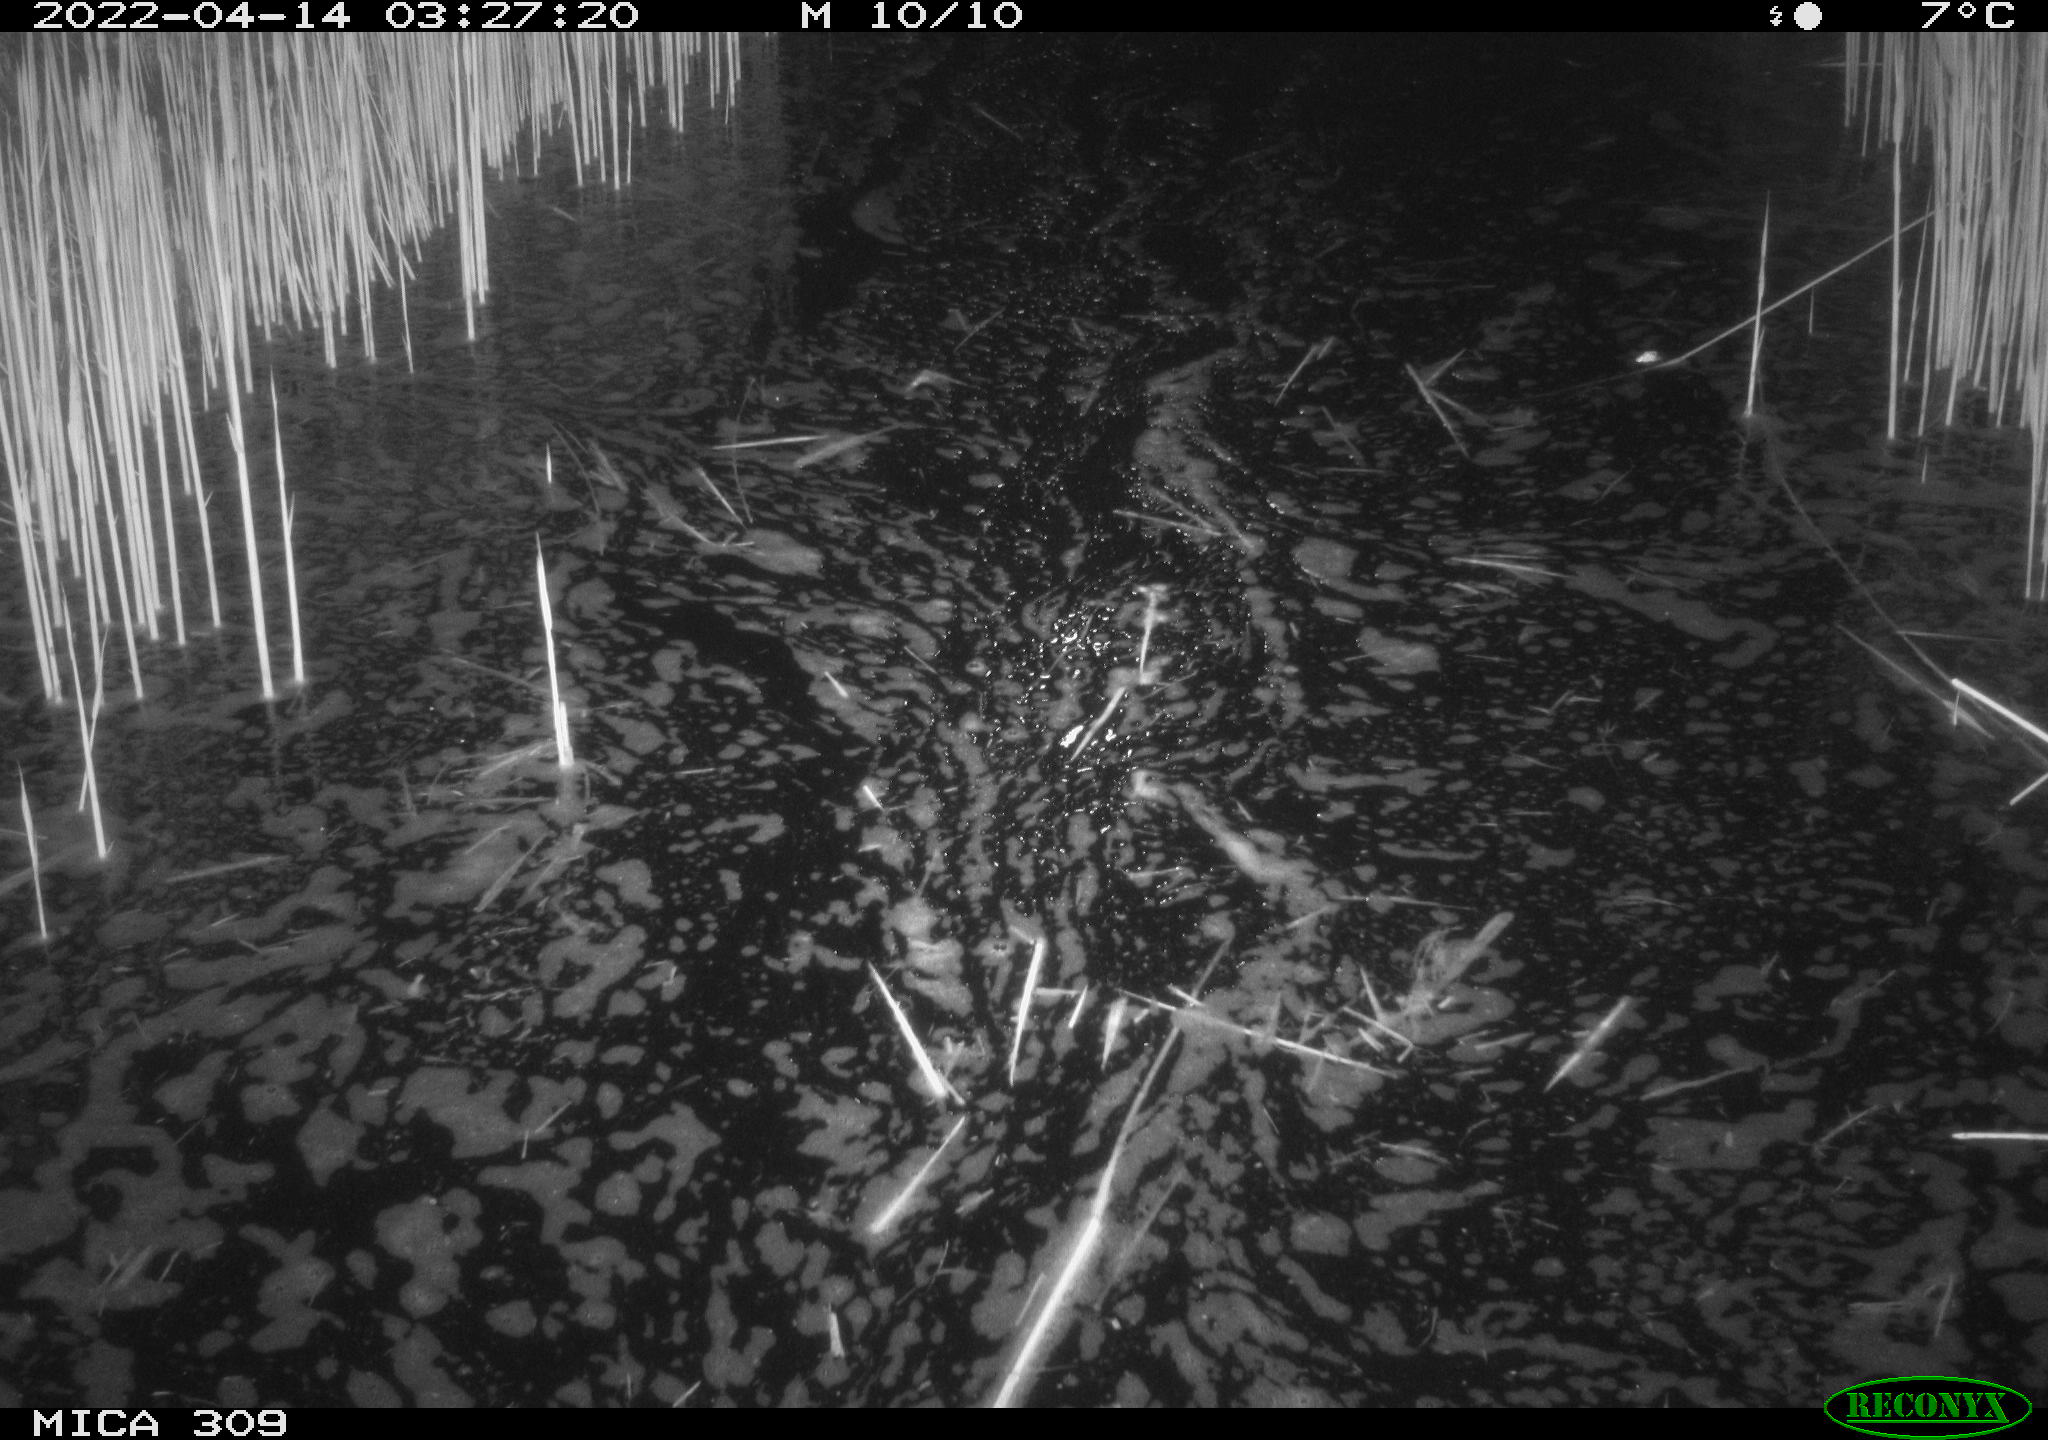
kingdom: Animalia
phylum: Chordata
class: Aves
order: Anseriformes
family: Anatidae
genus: Anas
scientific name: Anas platyrhynchos
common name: Mallard
